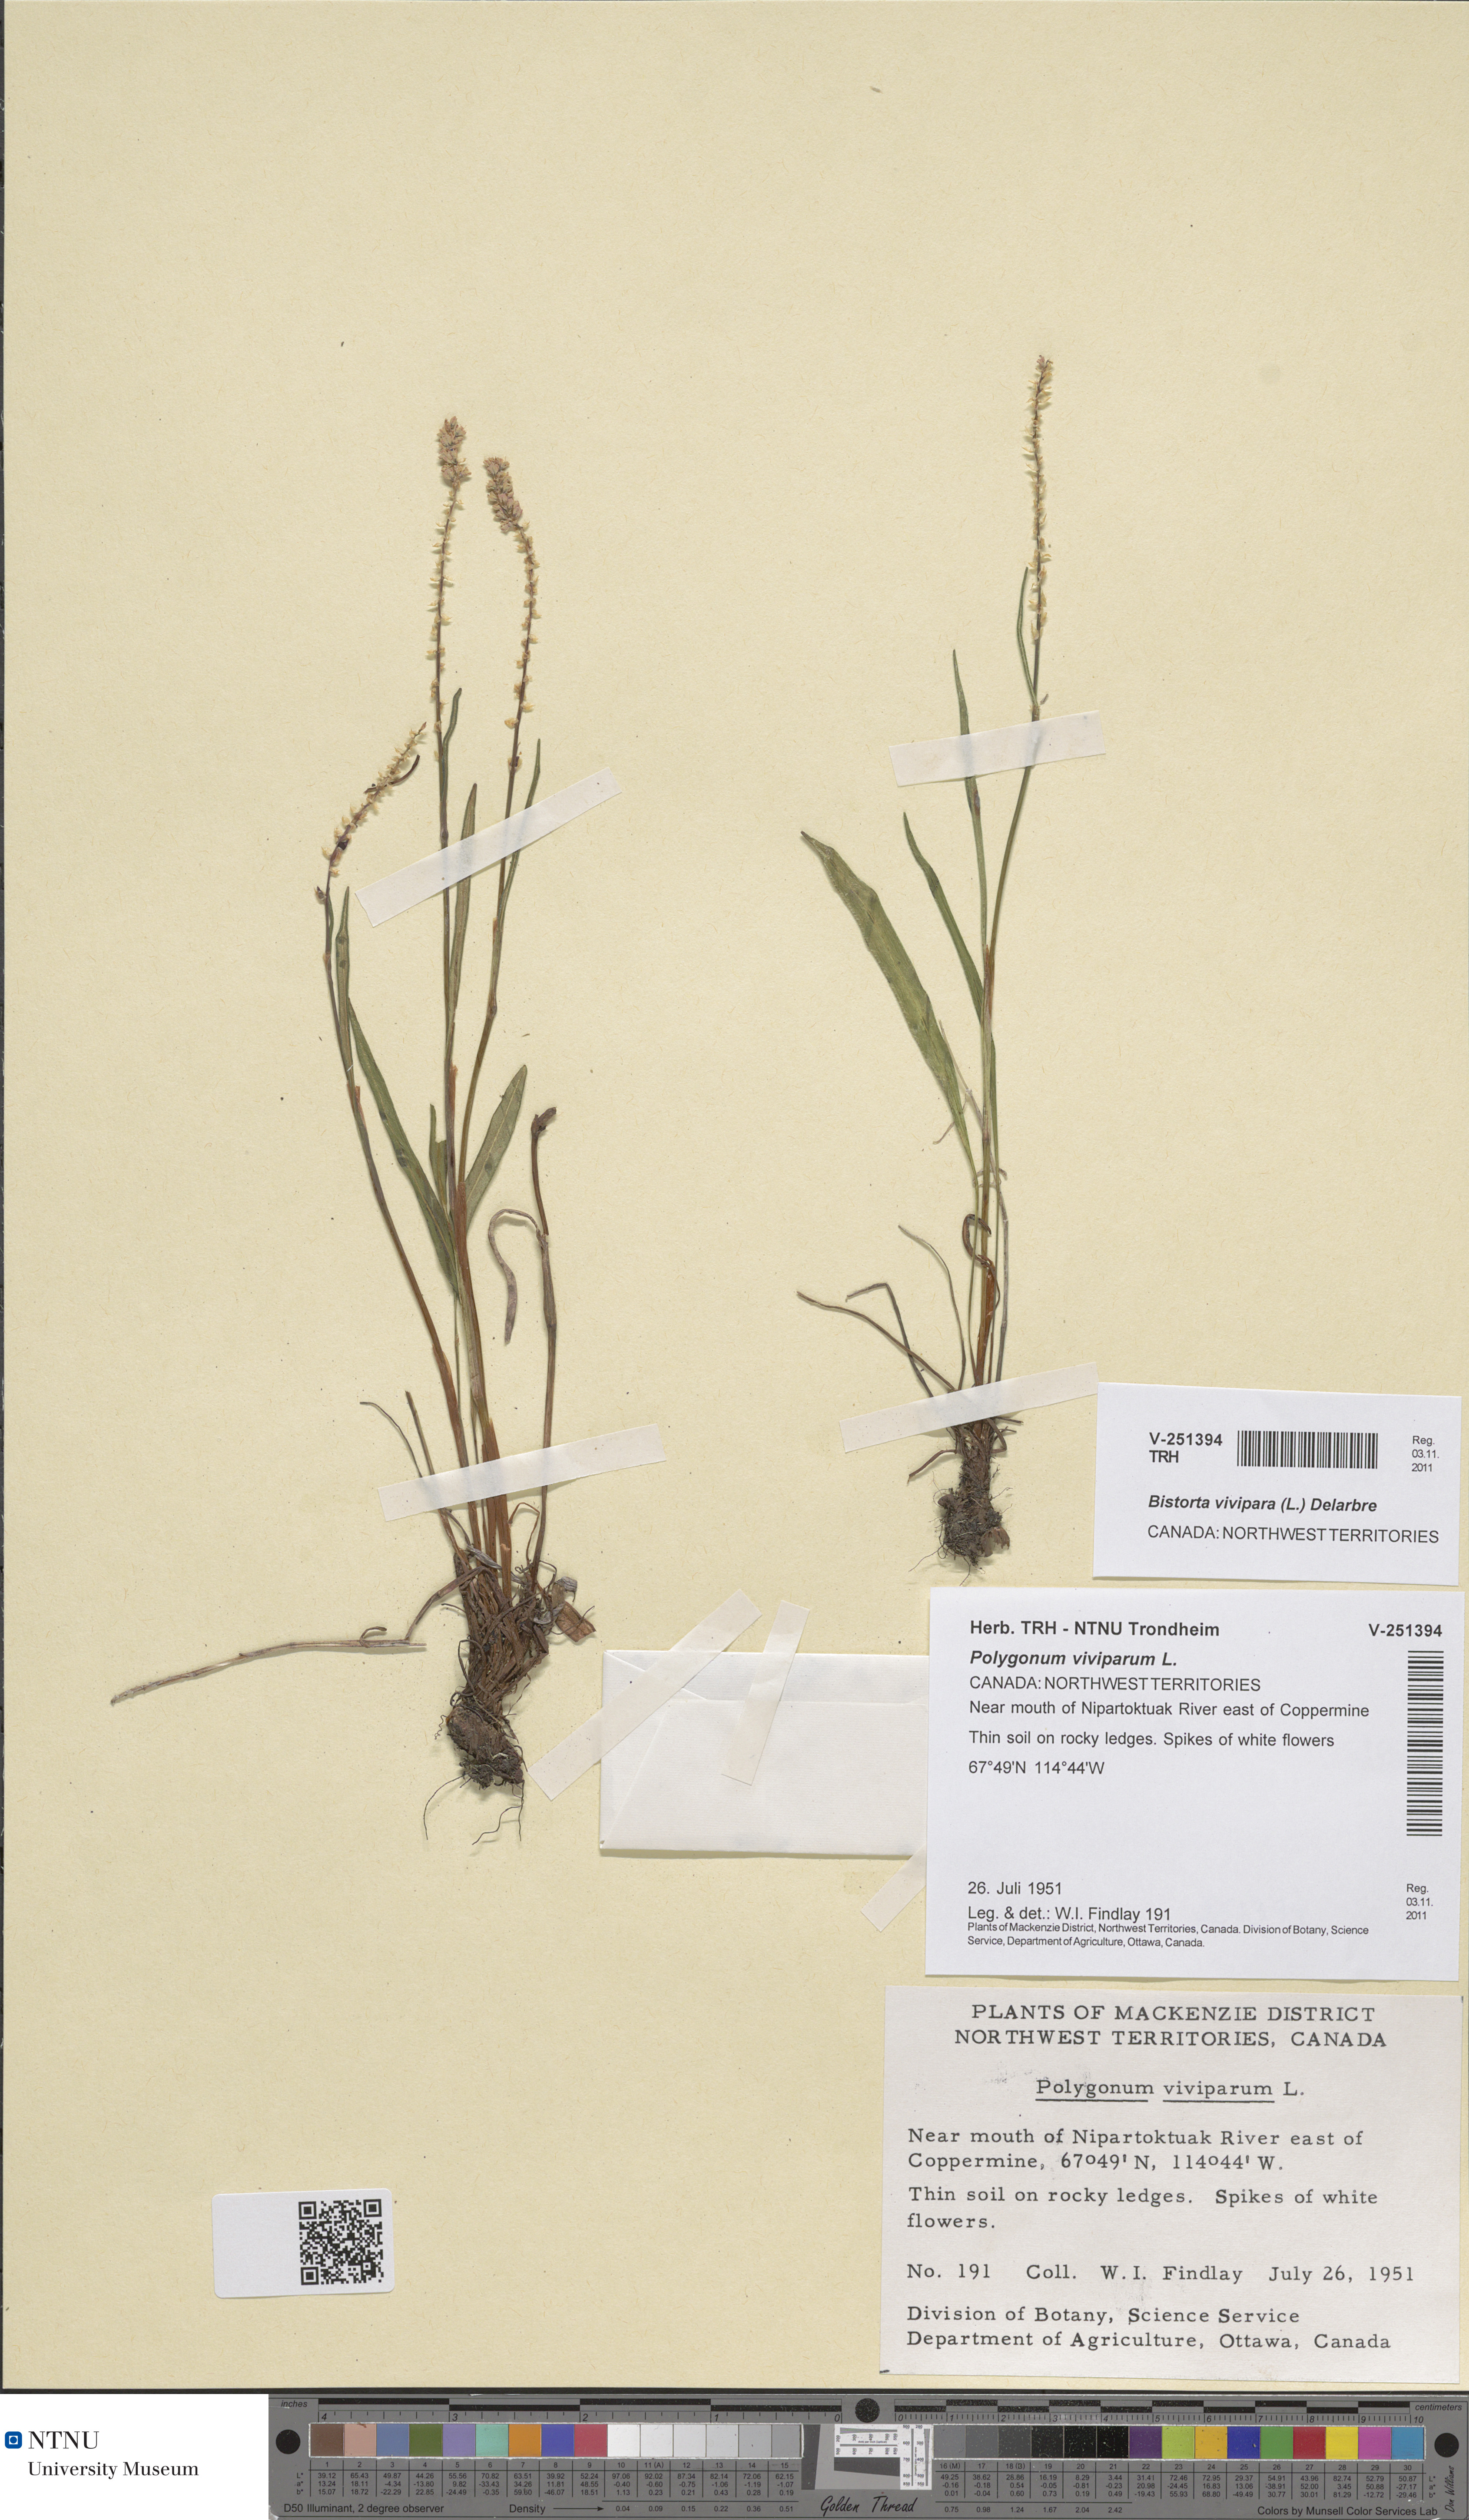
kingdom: Plantae
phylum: Tracheophyta
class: Magnoliopsida
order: Caryophyllales
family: Polygonaceae
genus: Bistorta
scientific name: Bistorta vivipara
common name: Alpine bistort
